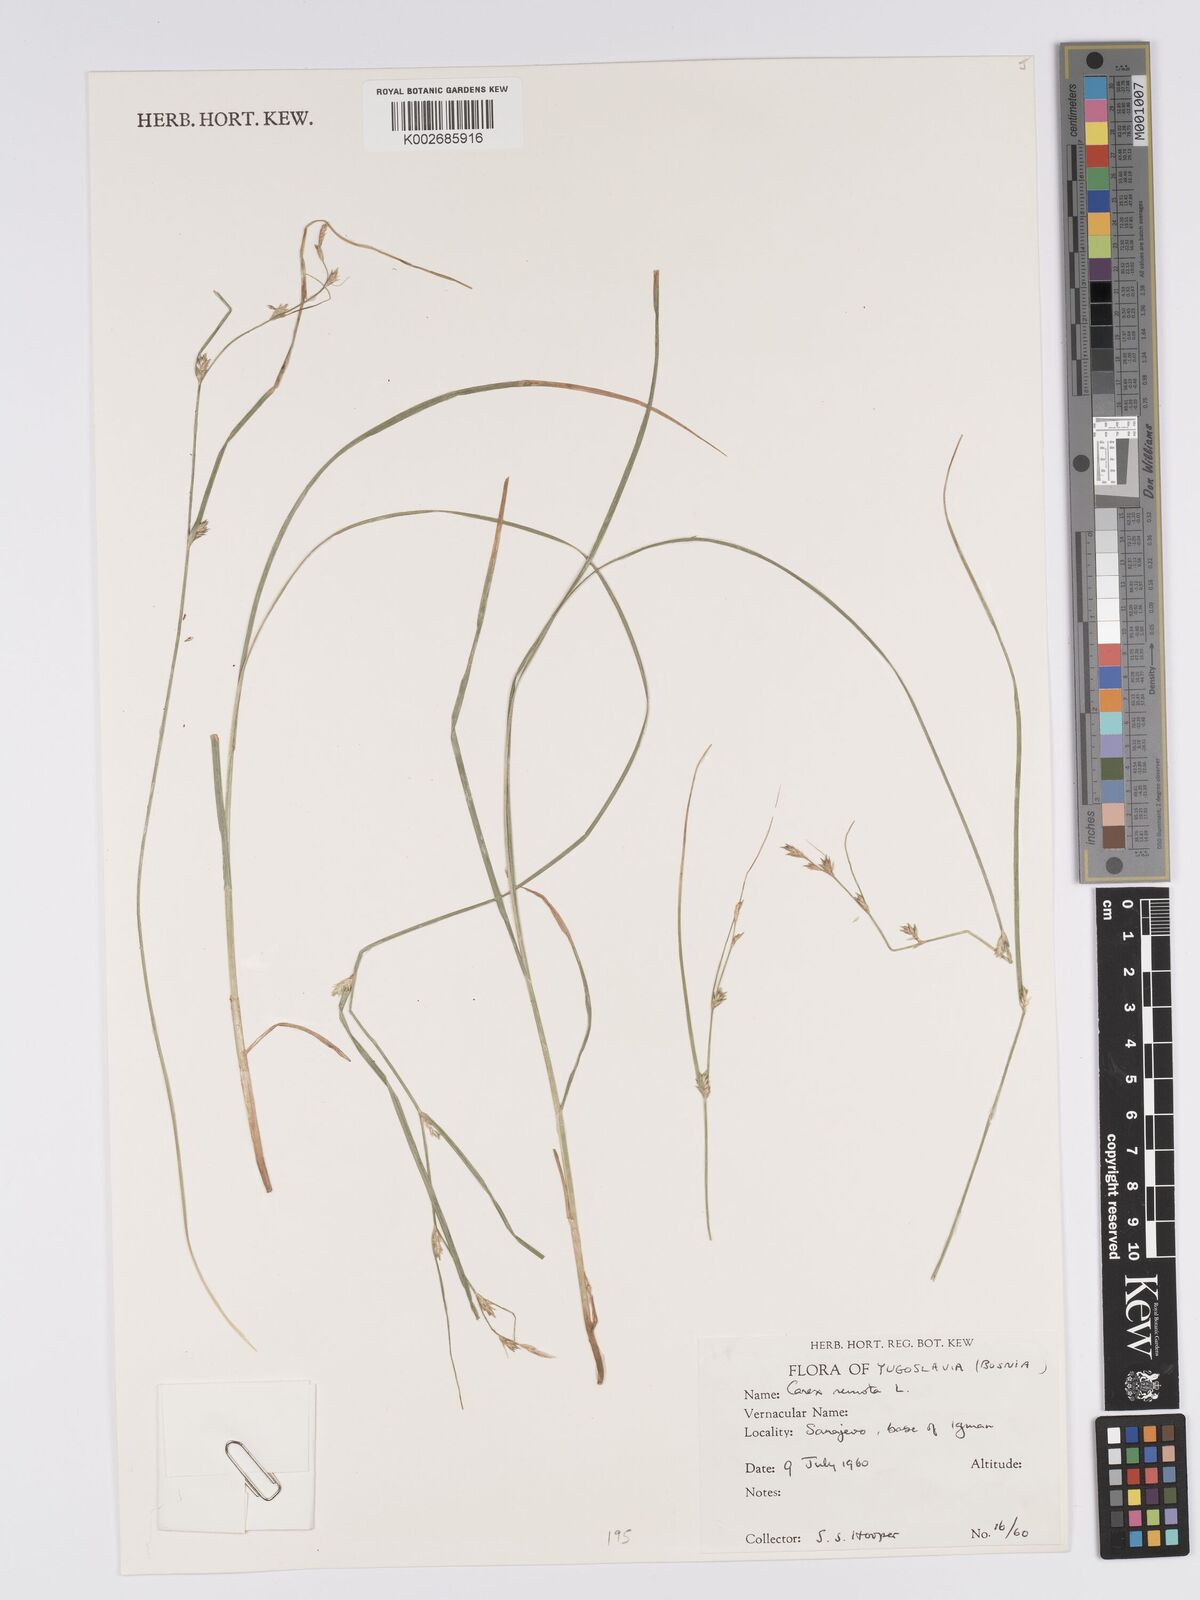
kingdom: Plantae
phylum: Tracheophyta
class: Liliopsida
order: Poales
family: Cyperaceae
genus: Carex
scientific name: Carex remota
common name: Remote sedge
